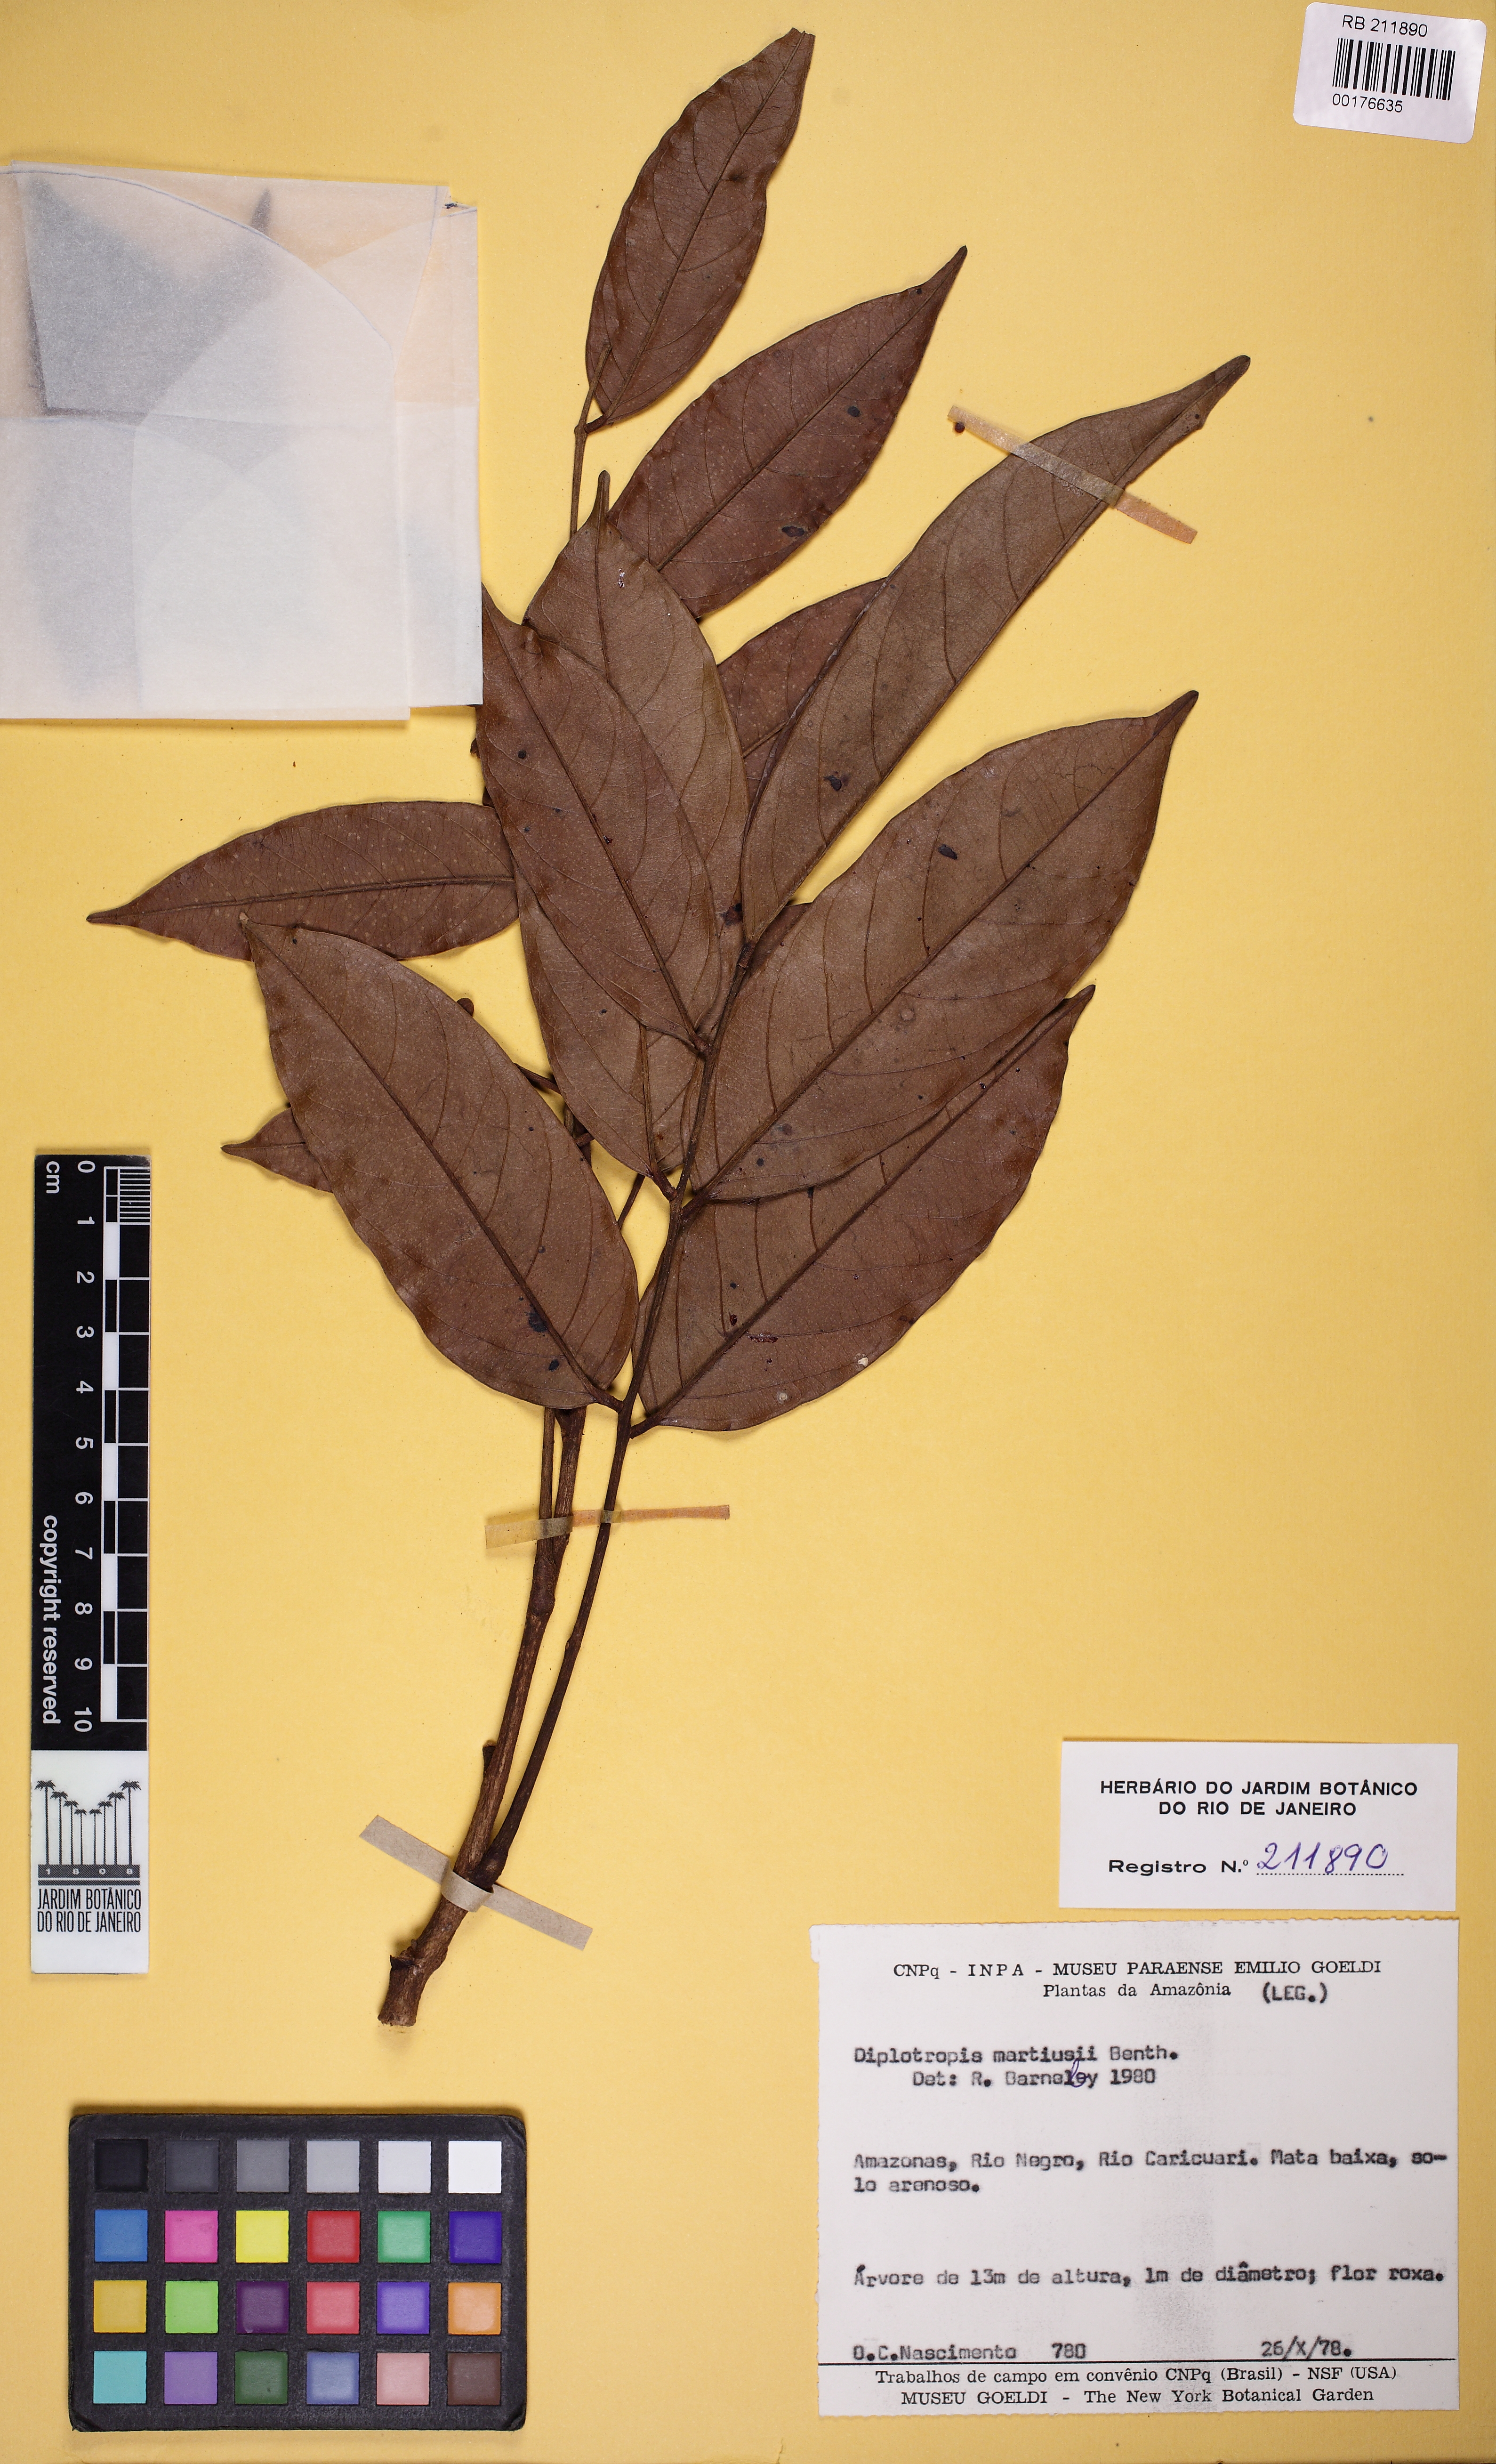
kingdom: Plantae
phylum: Tracheophyta
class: Magnoliopsida
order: Fabales
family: Fabaceae
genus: Diplotropis
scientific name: Diplotropis martiusii
